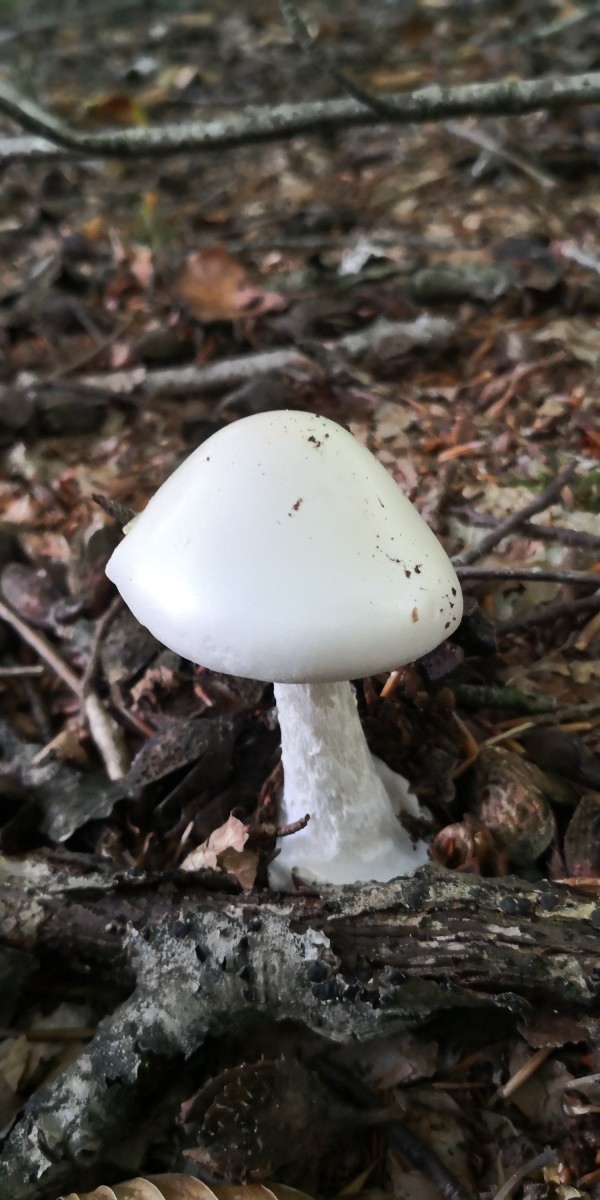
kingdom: Fungi
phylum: Basidiomycota
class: Agaricomycetes
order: Agaricales
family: Amanitaceae
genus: Amanita
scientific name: Amanita virosa
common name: snehvid fluesvamp
